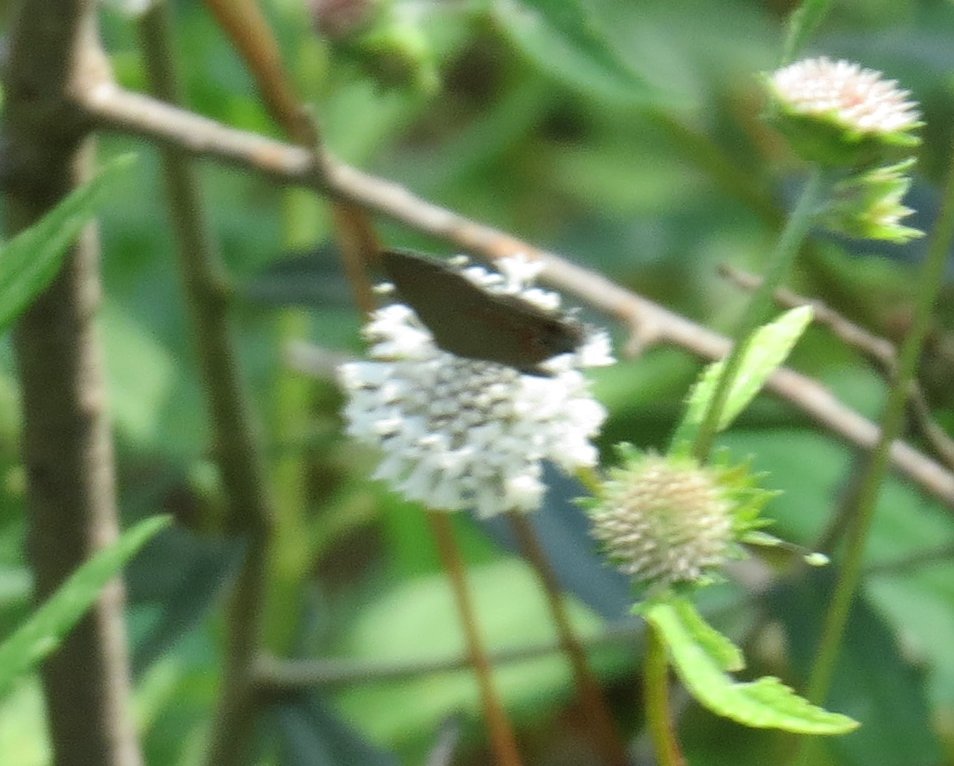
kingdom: Animalia
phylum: Arthropoda
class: Insecta
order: Lepidoptera
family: Lycaenidae
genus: Calycopis
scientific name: Calycopis cecrops
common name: Red-banded Hairstreak
